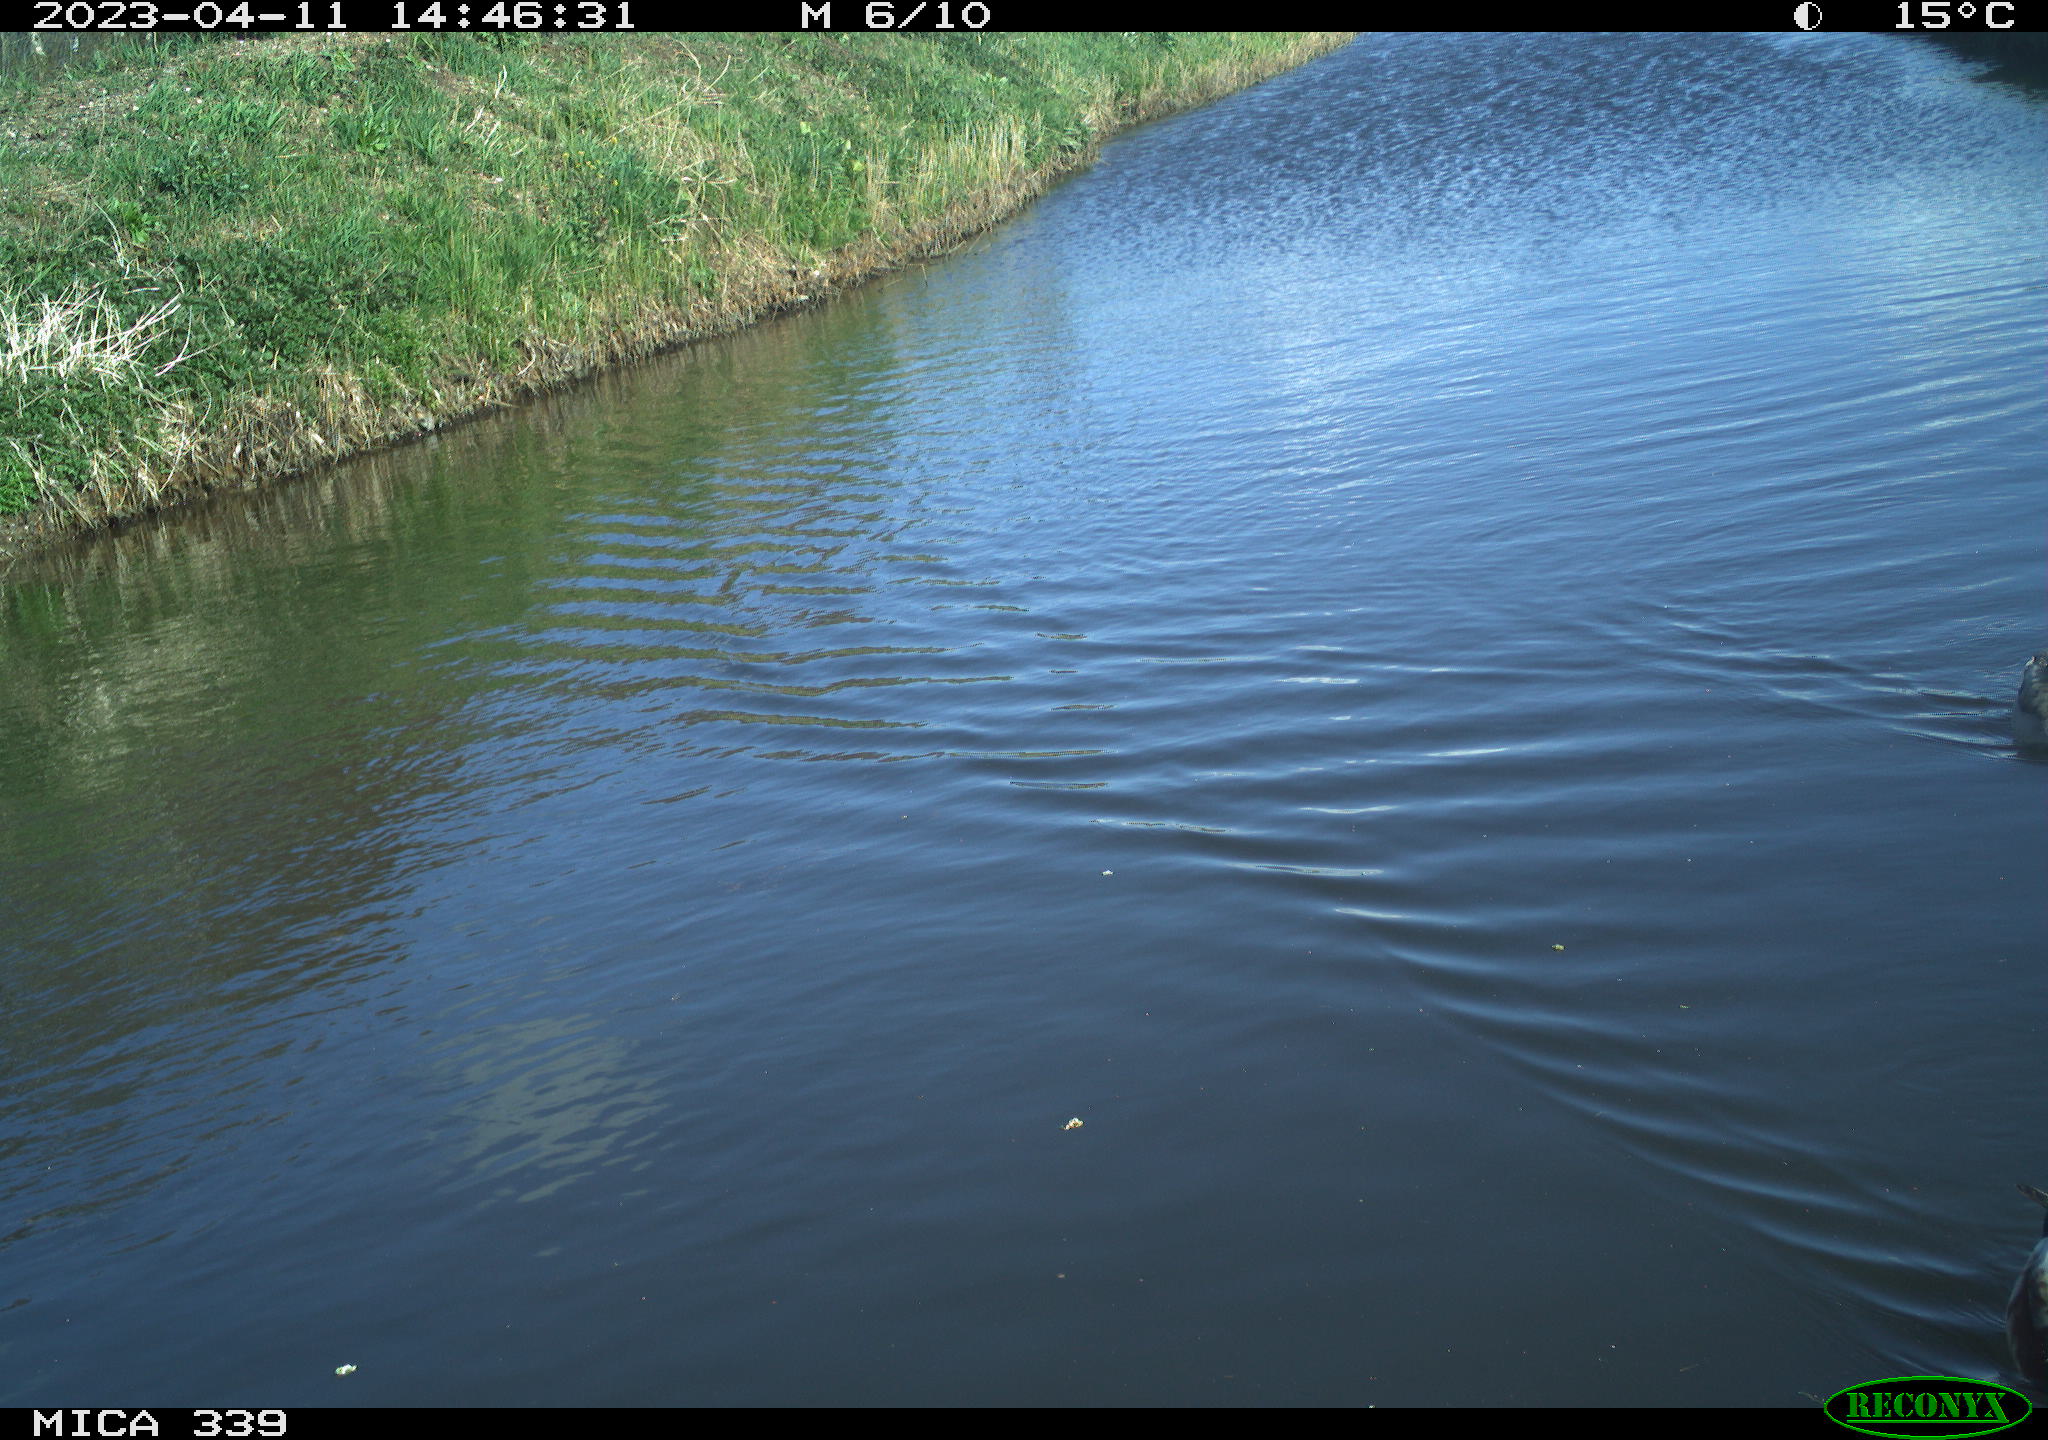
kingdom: Animalia
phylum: Chordata
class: Aves
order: Anseriformes
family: Anatidae
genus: Anas
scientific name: Anas
